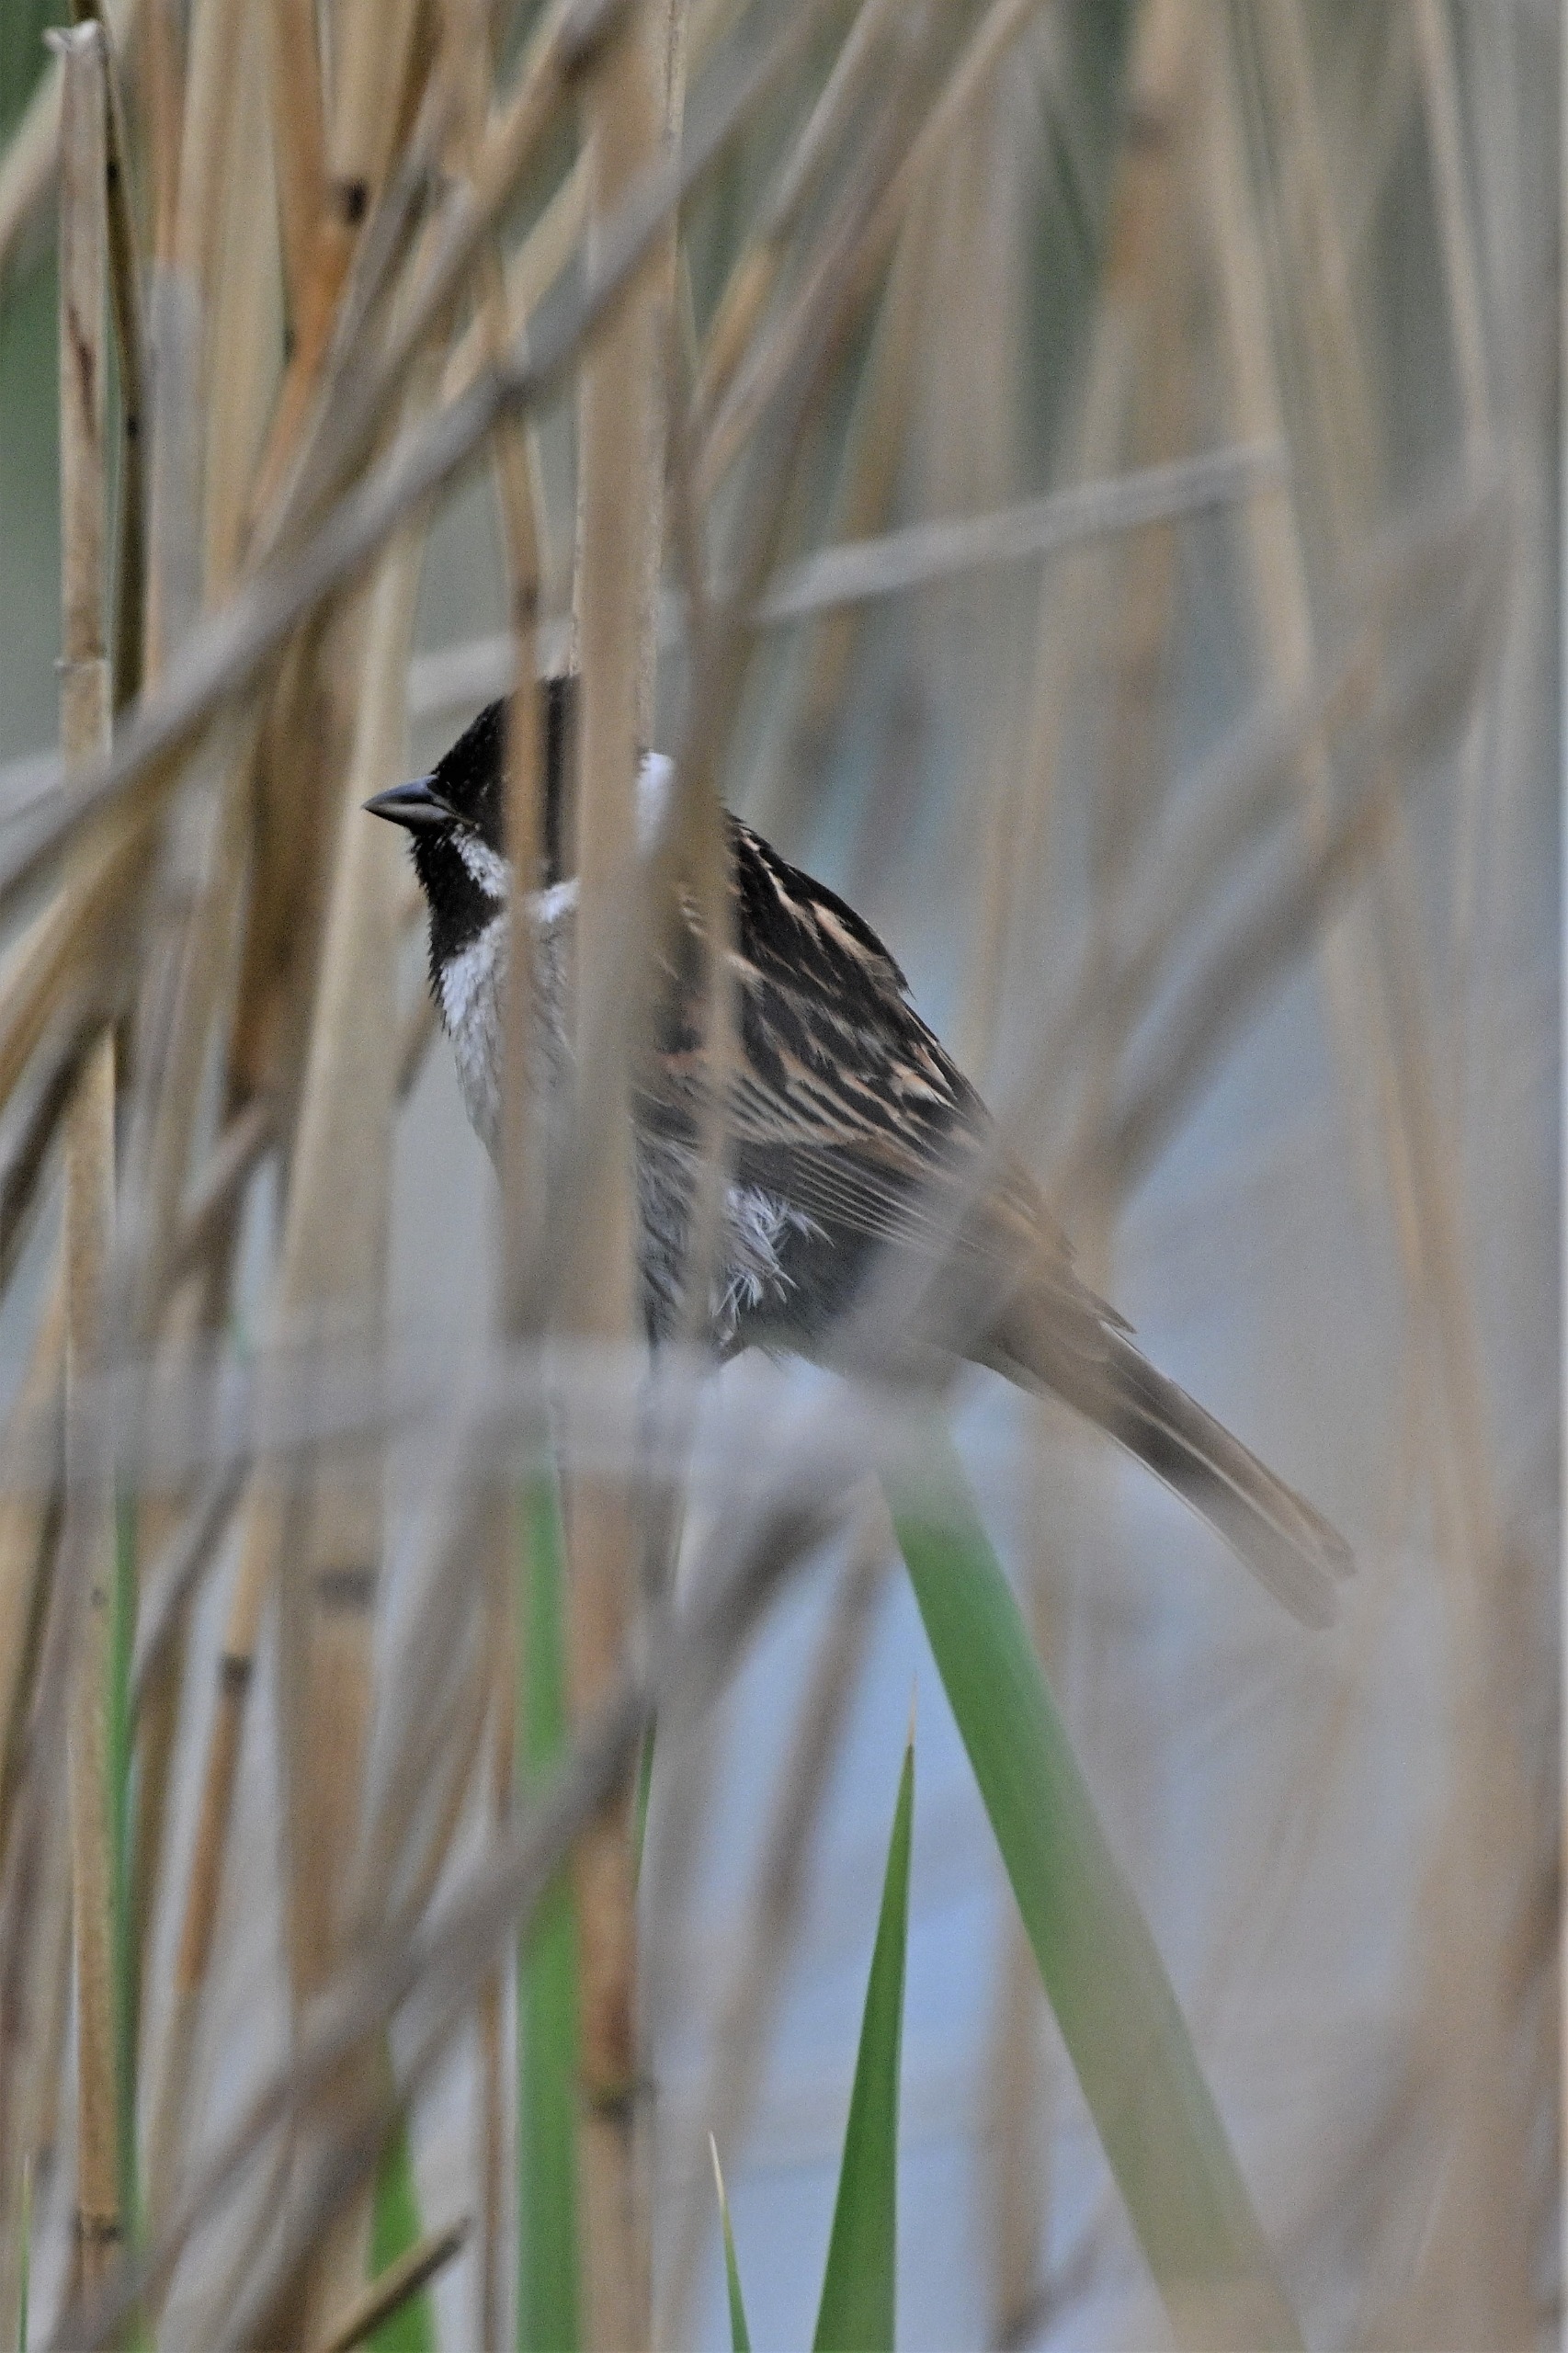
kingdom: Animalia
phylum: Chordata
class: Aves
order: Passeriformes
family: Emberizidae
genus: Emberiza
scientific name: Emberiza schoeniclus
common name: Rørspurv
